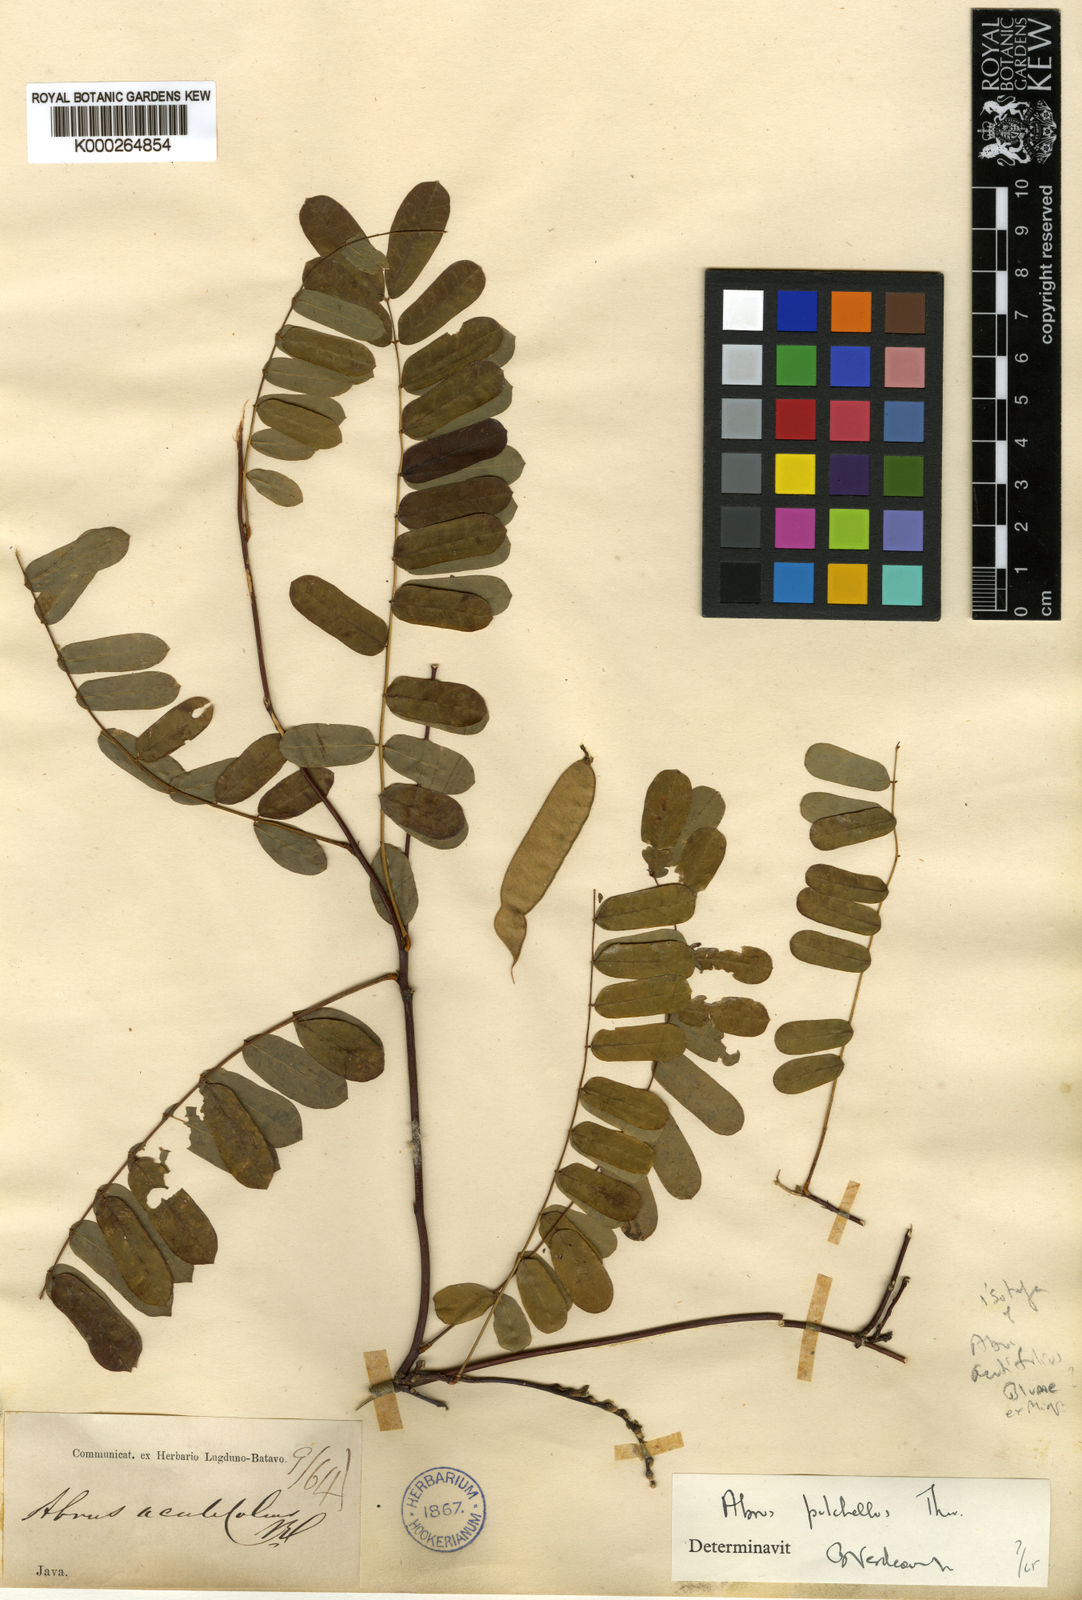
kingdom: Plantae
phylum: Tracheophyta
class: Magnoliopsida
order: Fabales
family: Fabaceae
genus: Abrus
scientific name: Abrus melanospermus
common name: Licorice-root
